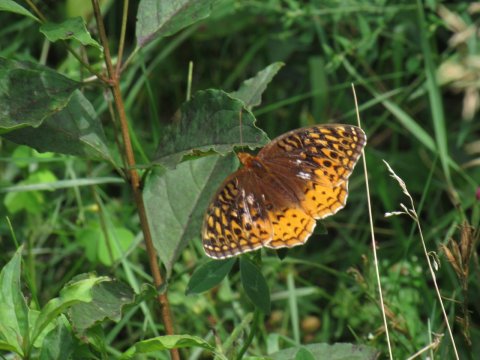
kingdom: Animalia
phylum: Arthropoda
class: Insecta
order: Lepidoptera
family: Nymphalidae
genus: Speyeria
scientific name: Speyeria cybele
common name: Great Spangled Fritillary
